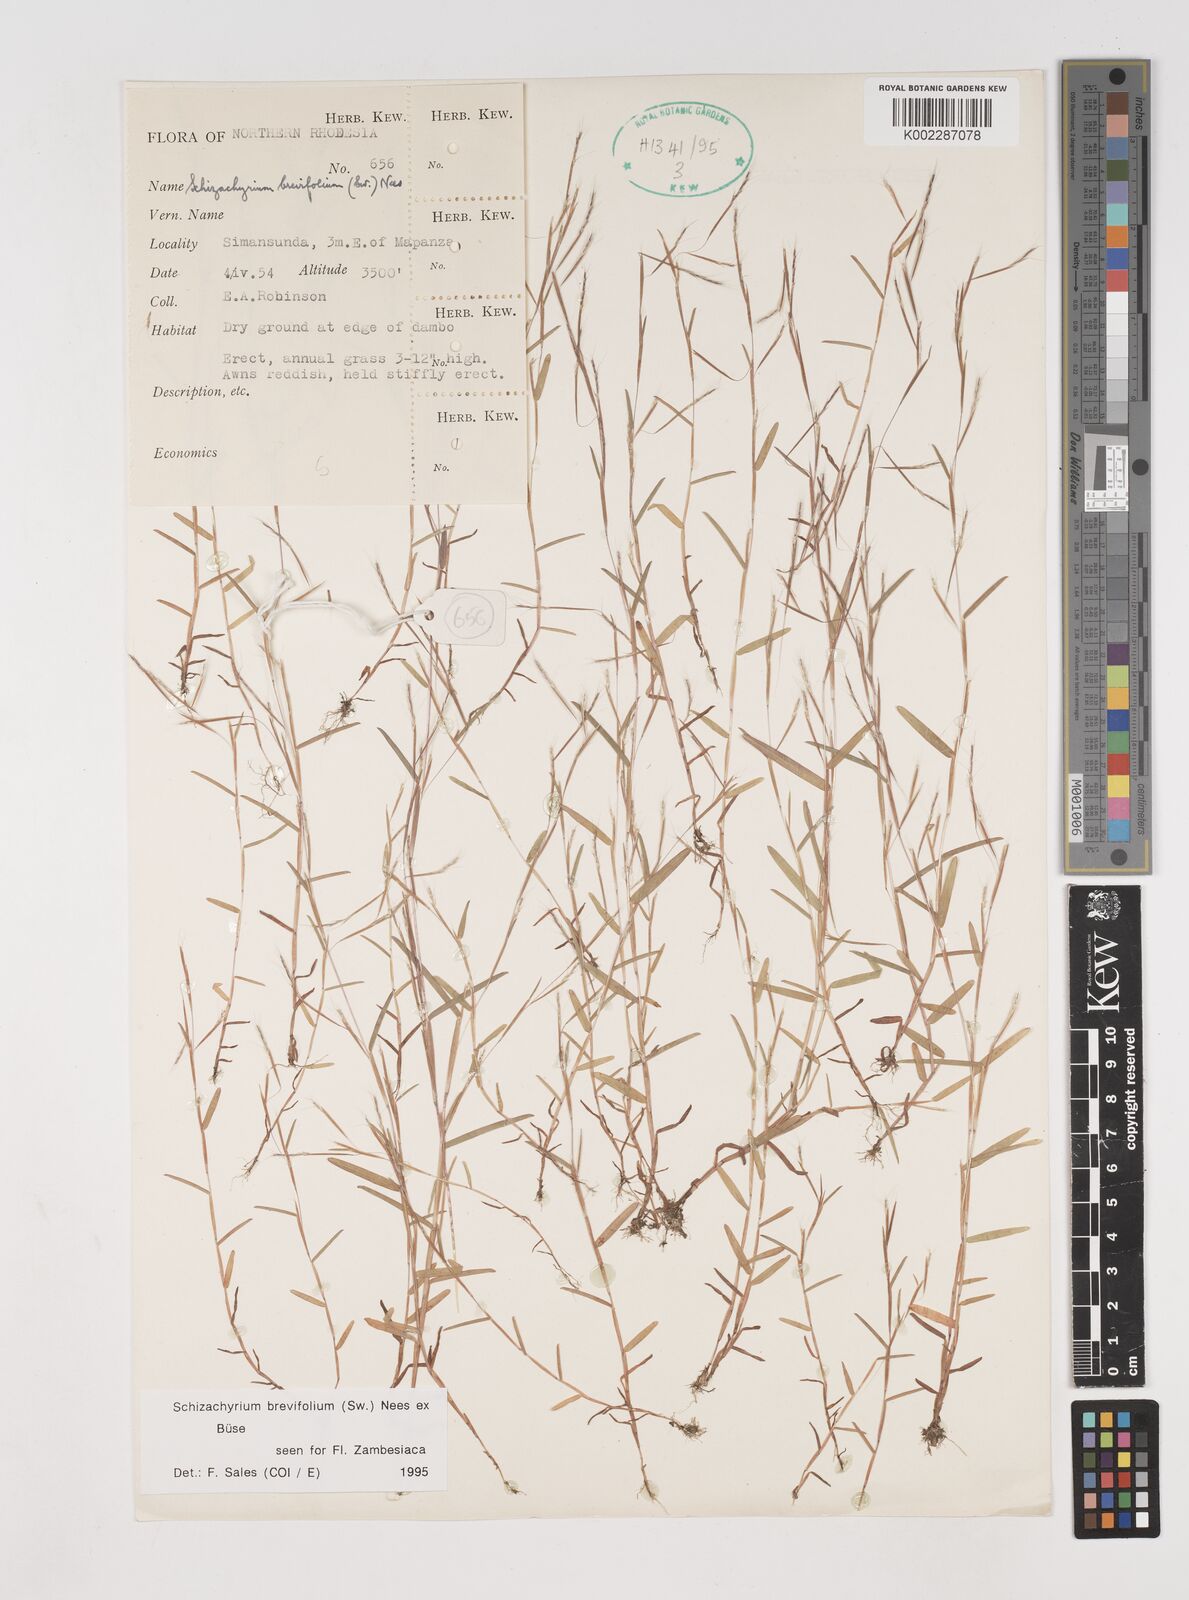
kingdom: Plantae
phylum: Tracheophyta
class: Liliopsida
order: Poales
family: Poaceae
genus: Schizachyrium
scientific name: Schizachyrium brevifolium
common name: Serillo dulce
